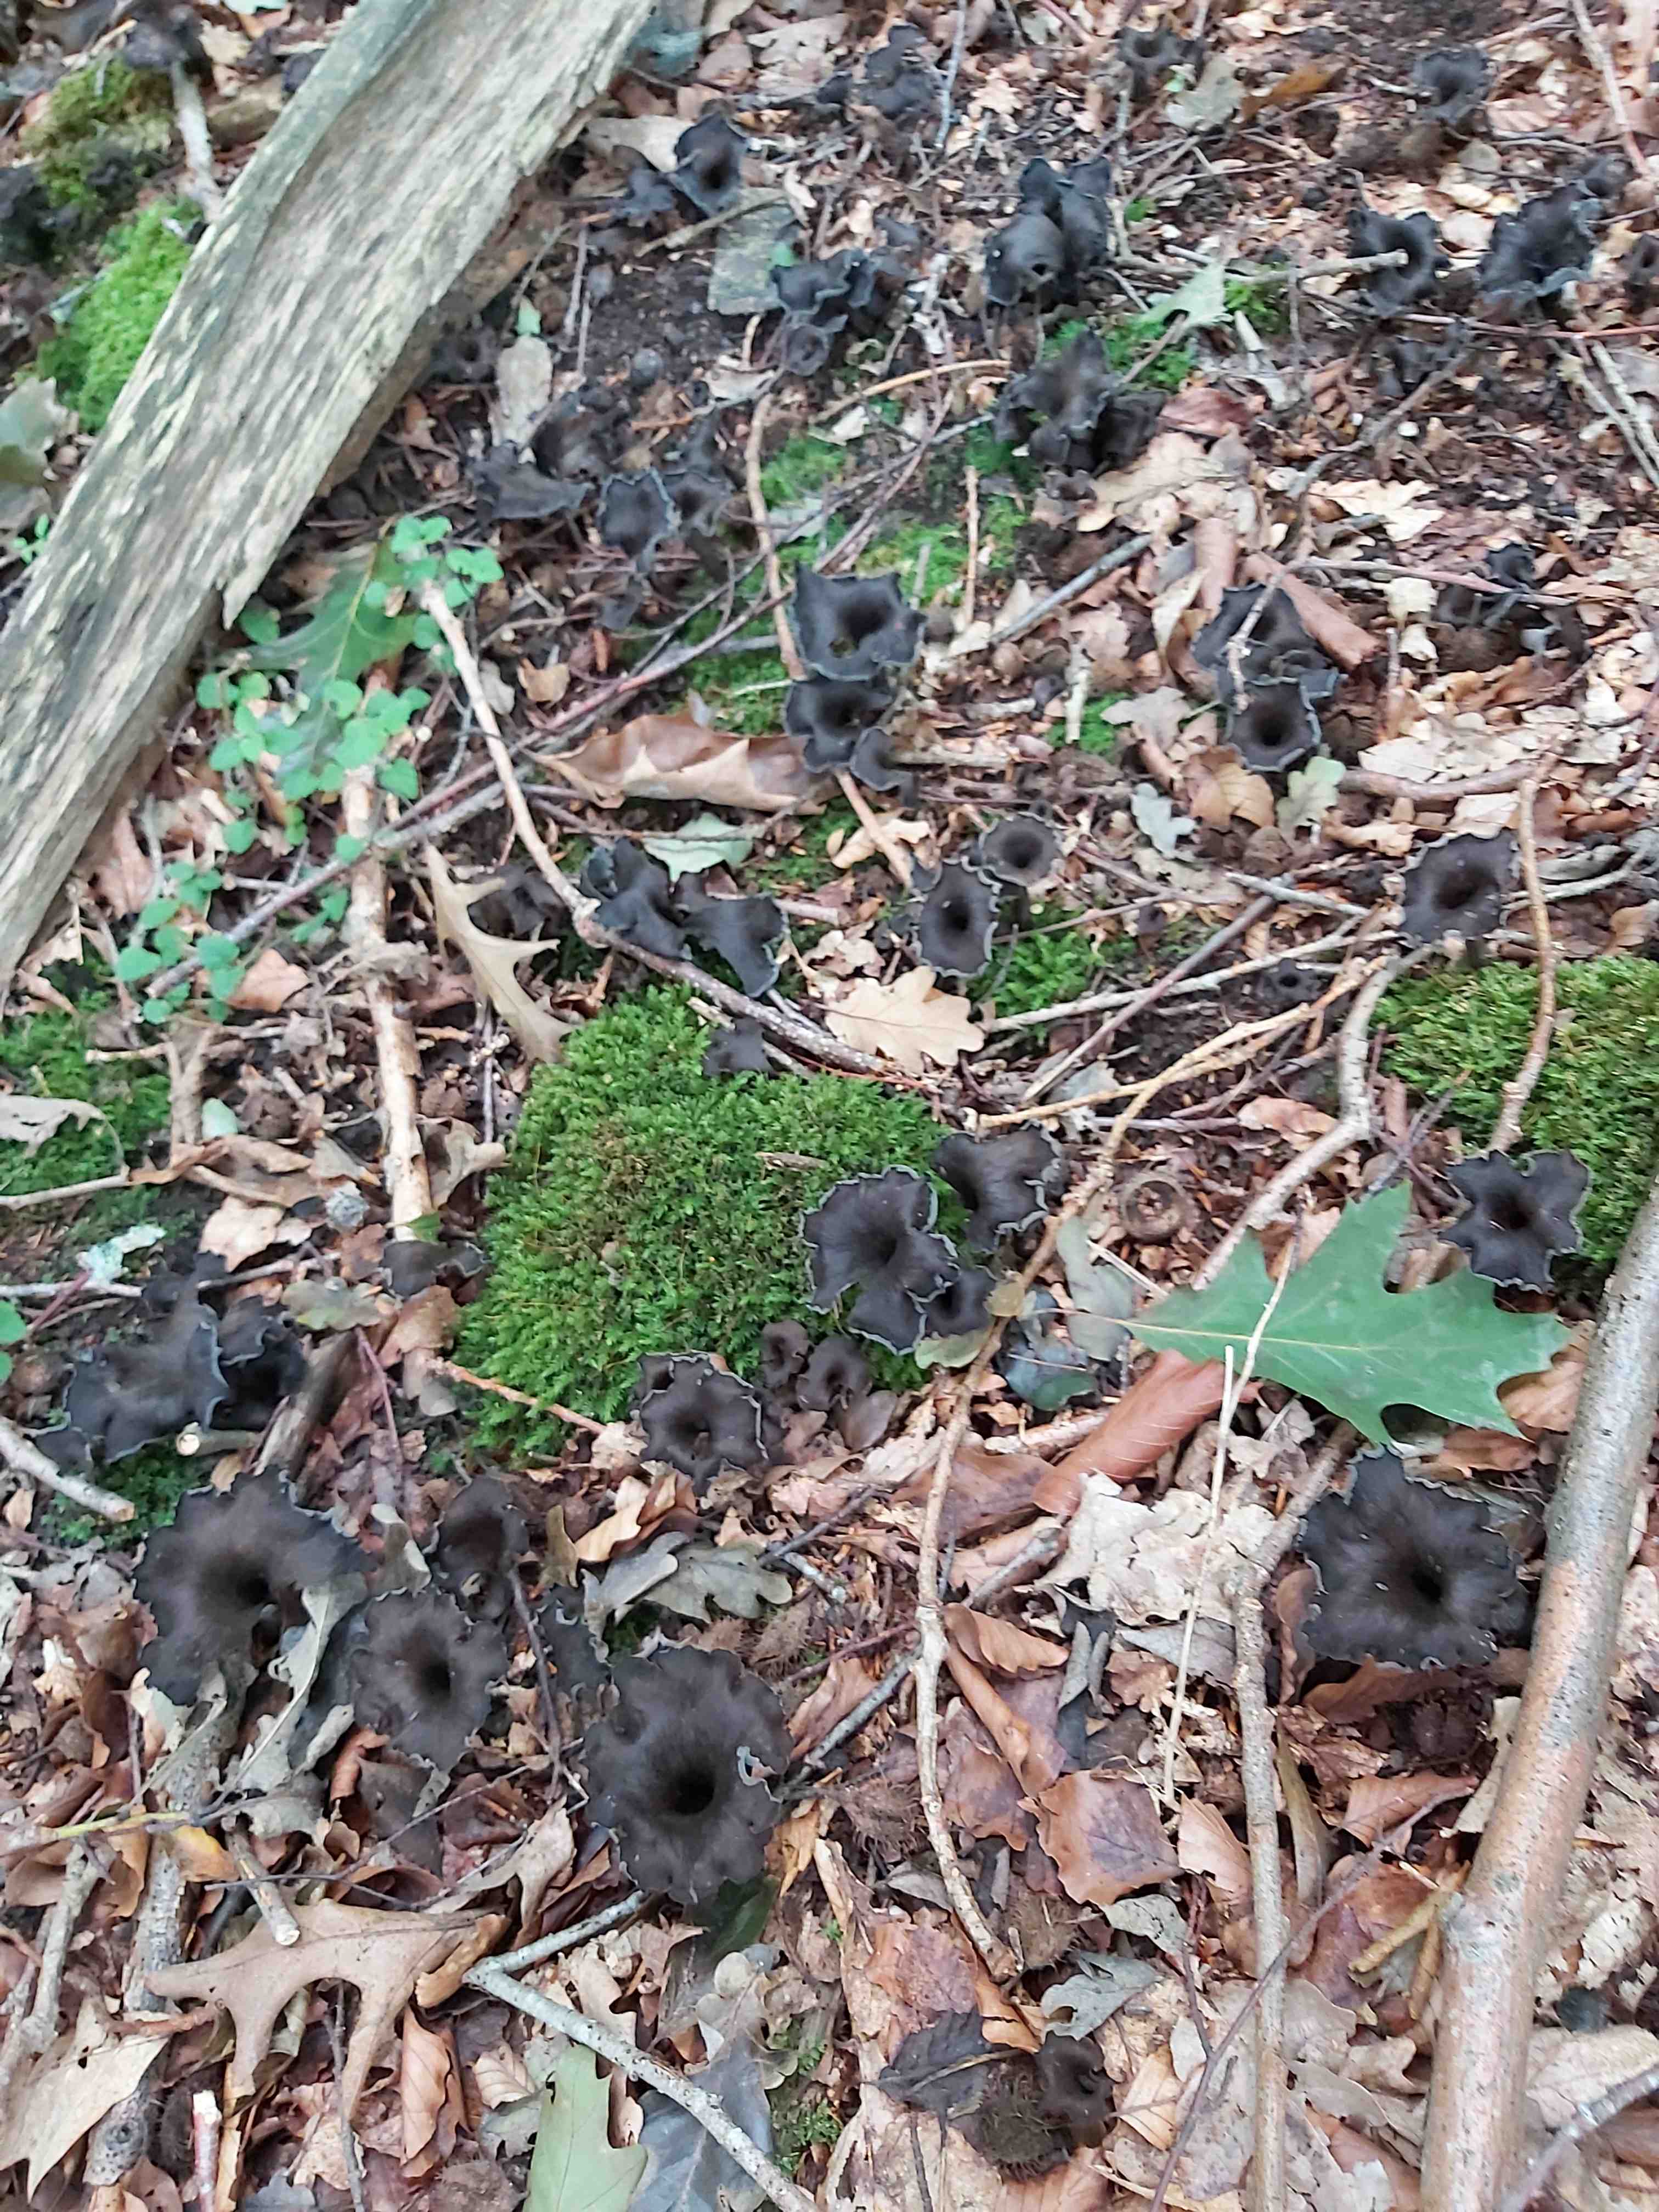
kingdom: Fungi
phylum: Basidiomycota
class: Agaricomycetes
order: Cantharellales
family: Hydnaceae
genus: Craterellus
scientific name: Craterellus cornucopioides
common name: trompetsvamp
